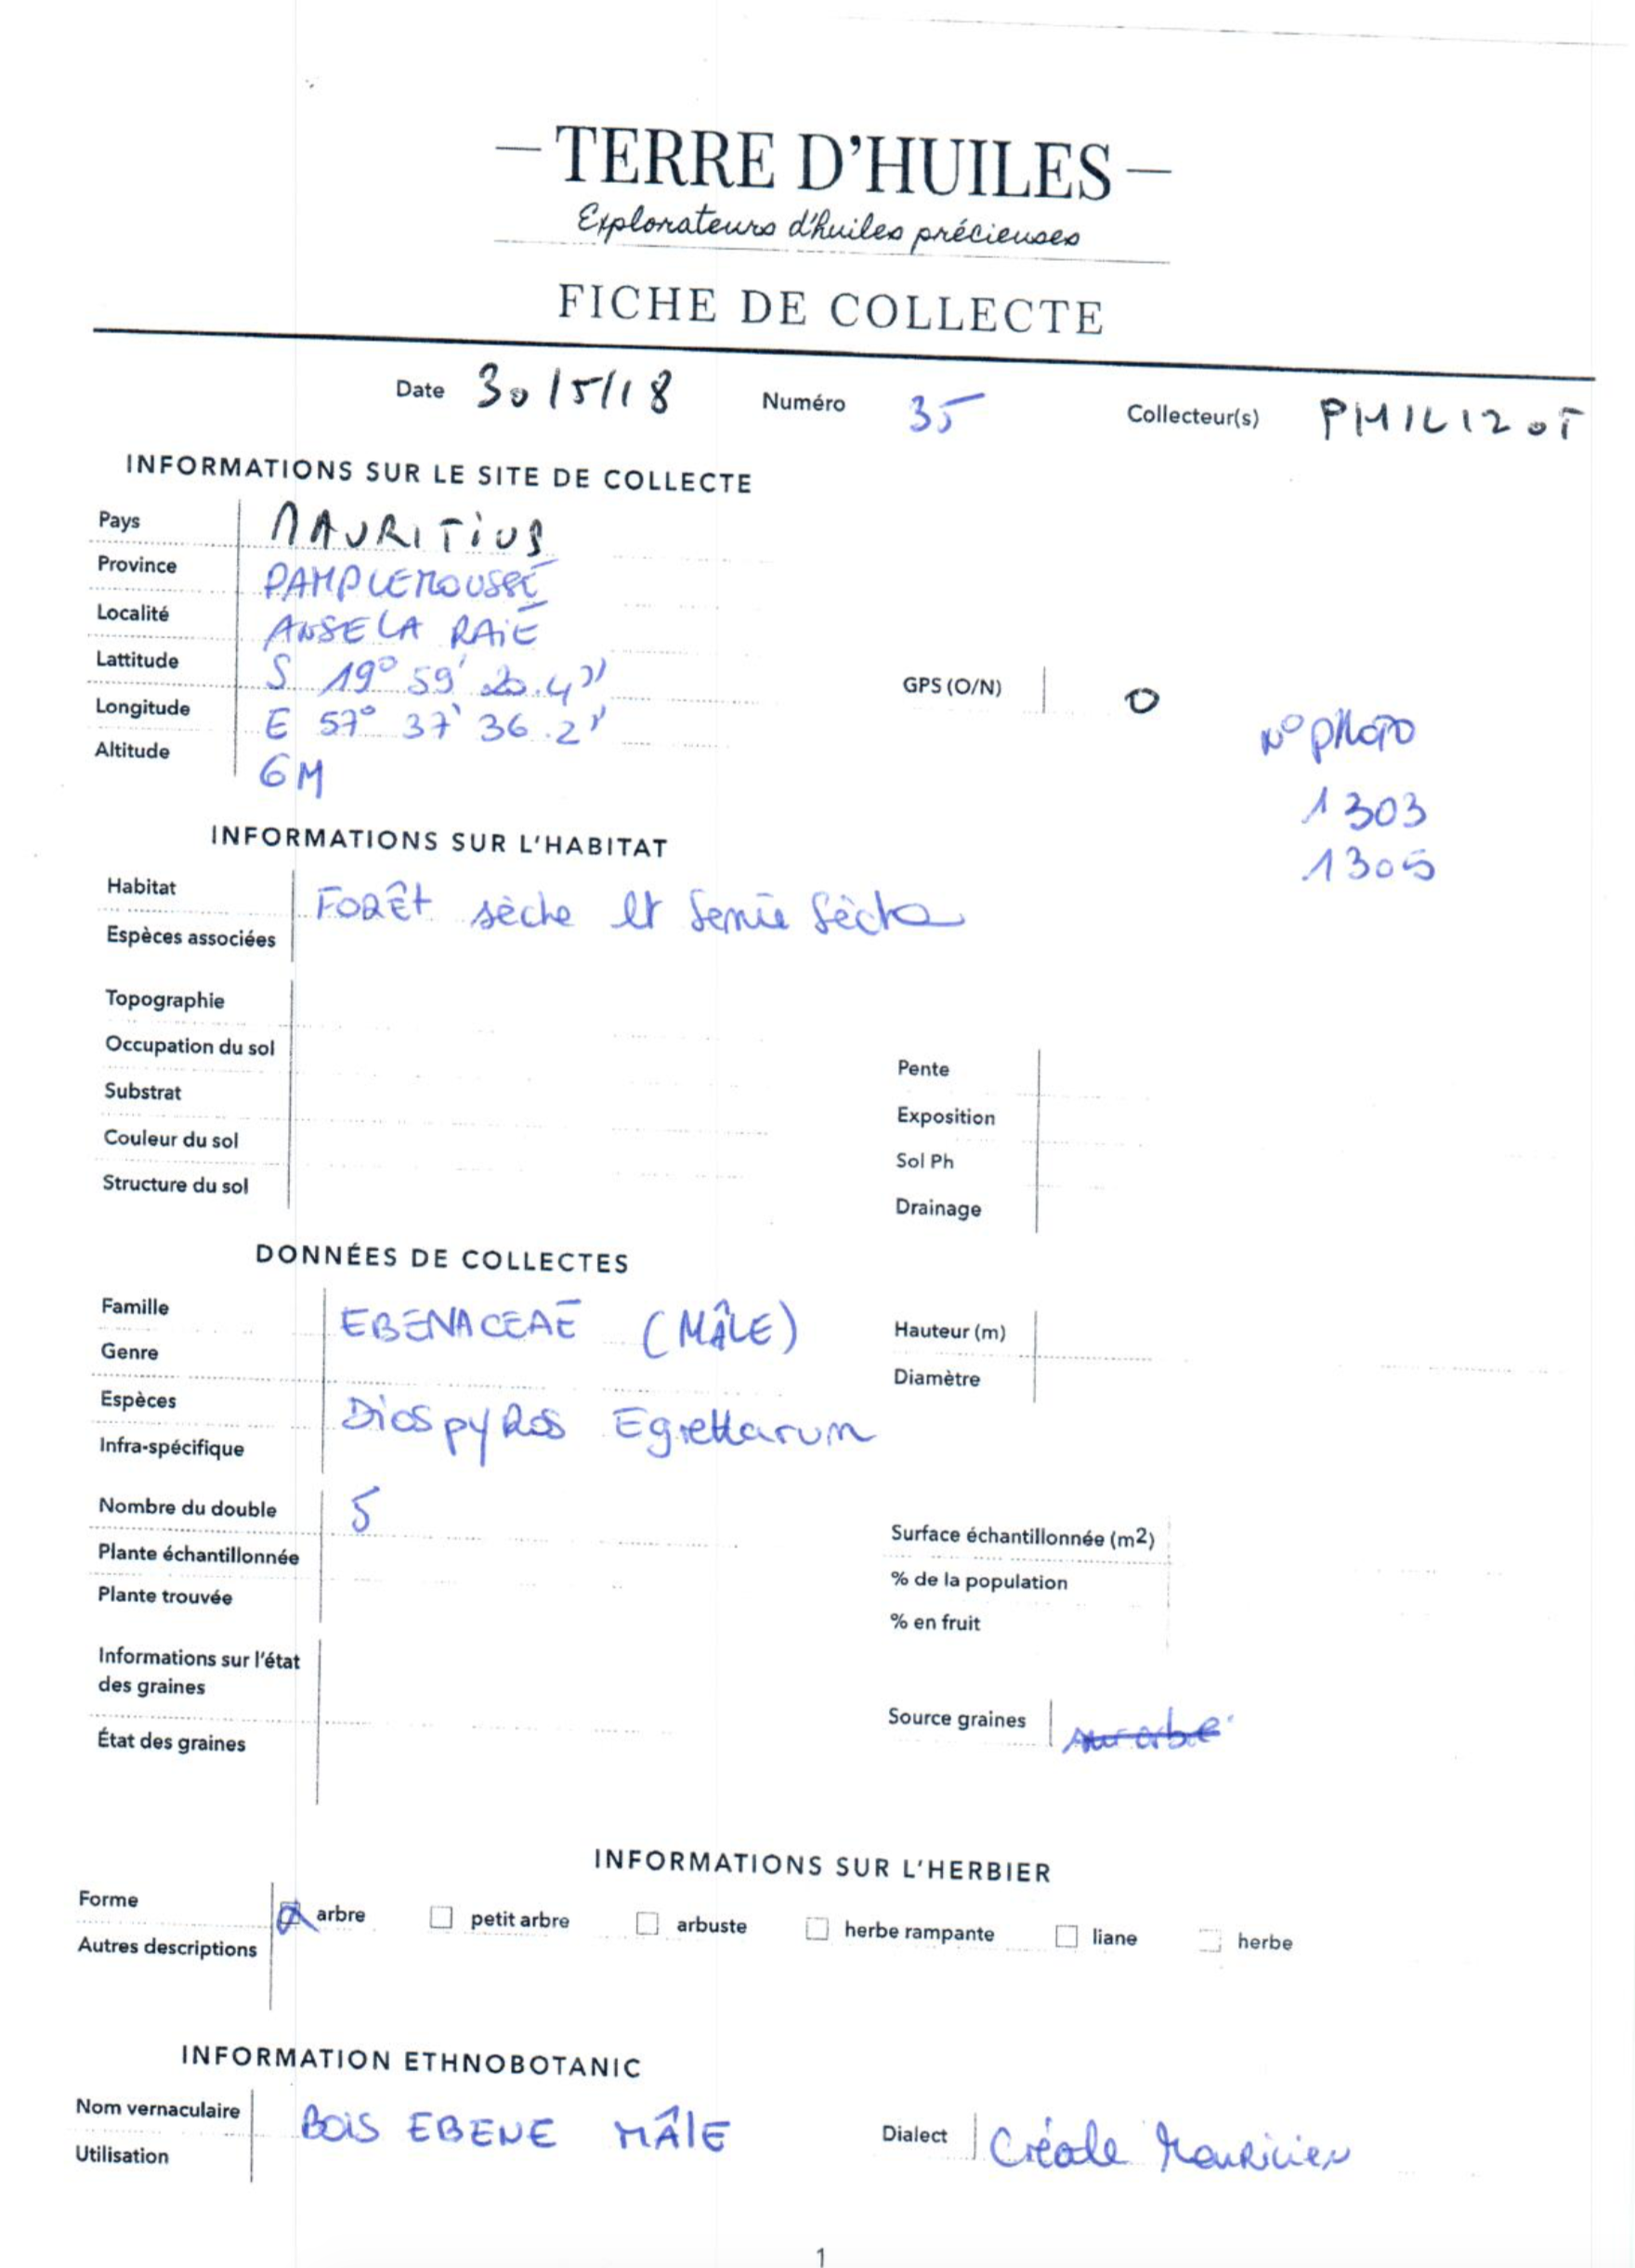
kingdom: Plantae
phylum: Tracheophyta
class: Magnoliopsida
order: Ericales
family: Ebenaceae
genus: Diospyros
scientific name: Diospyros egrettarum
